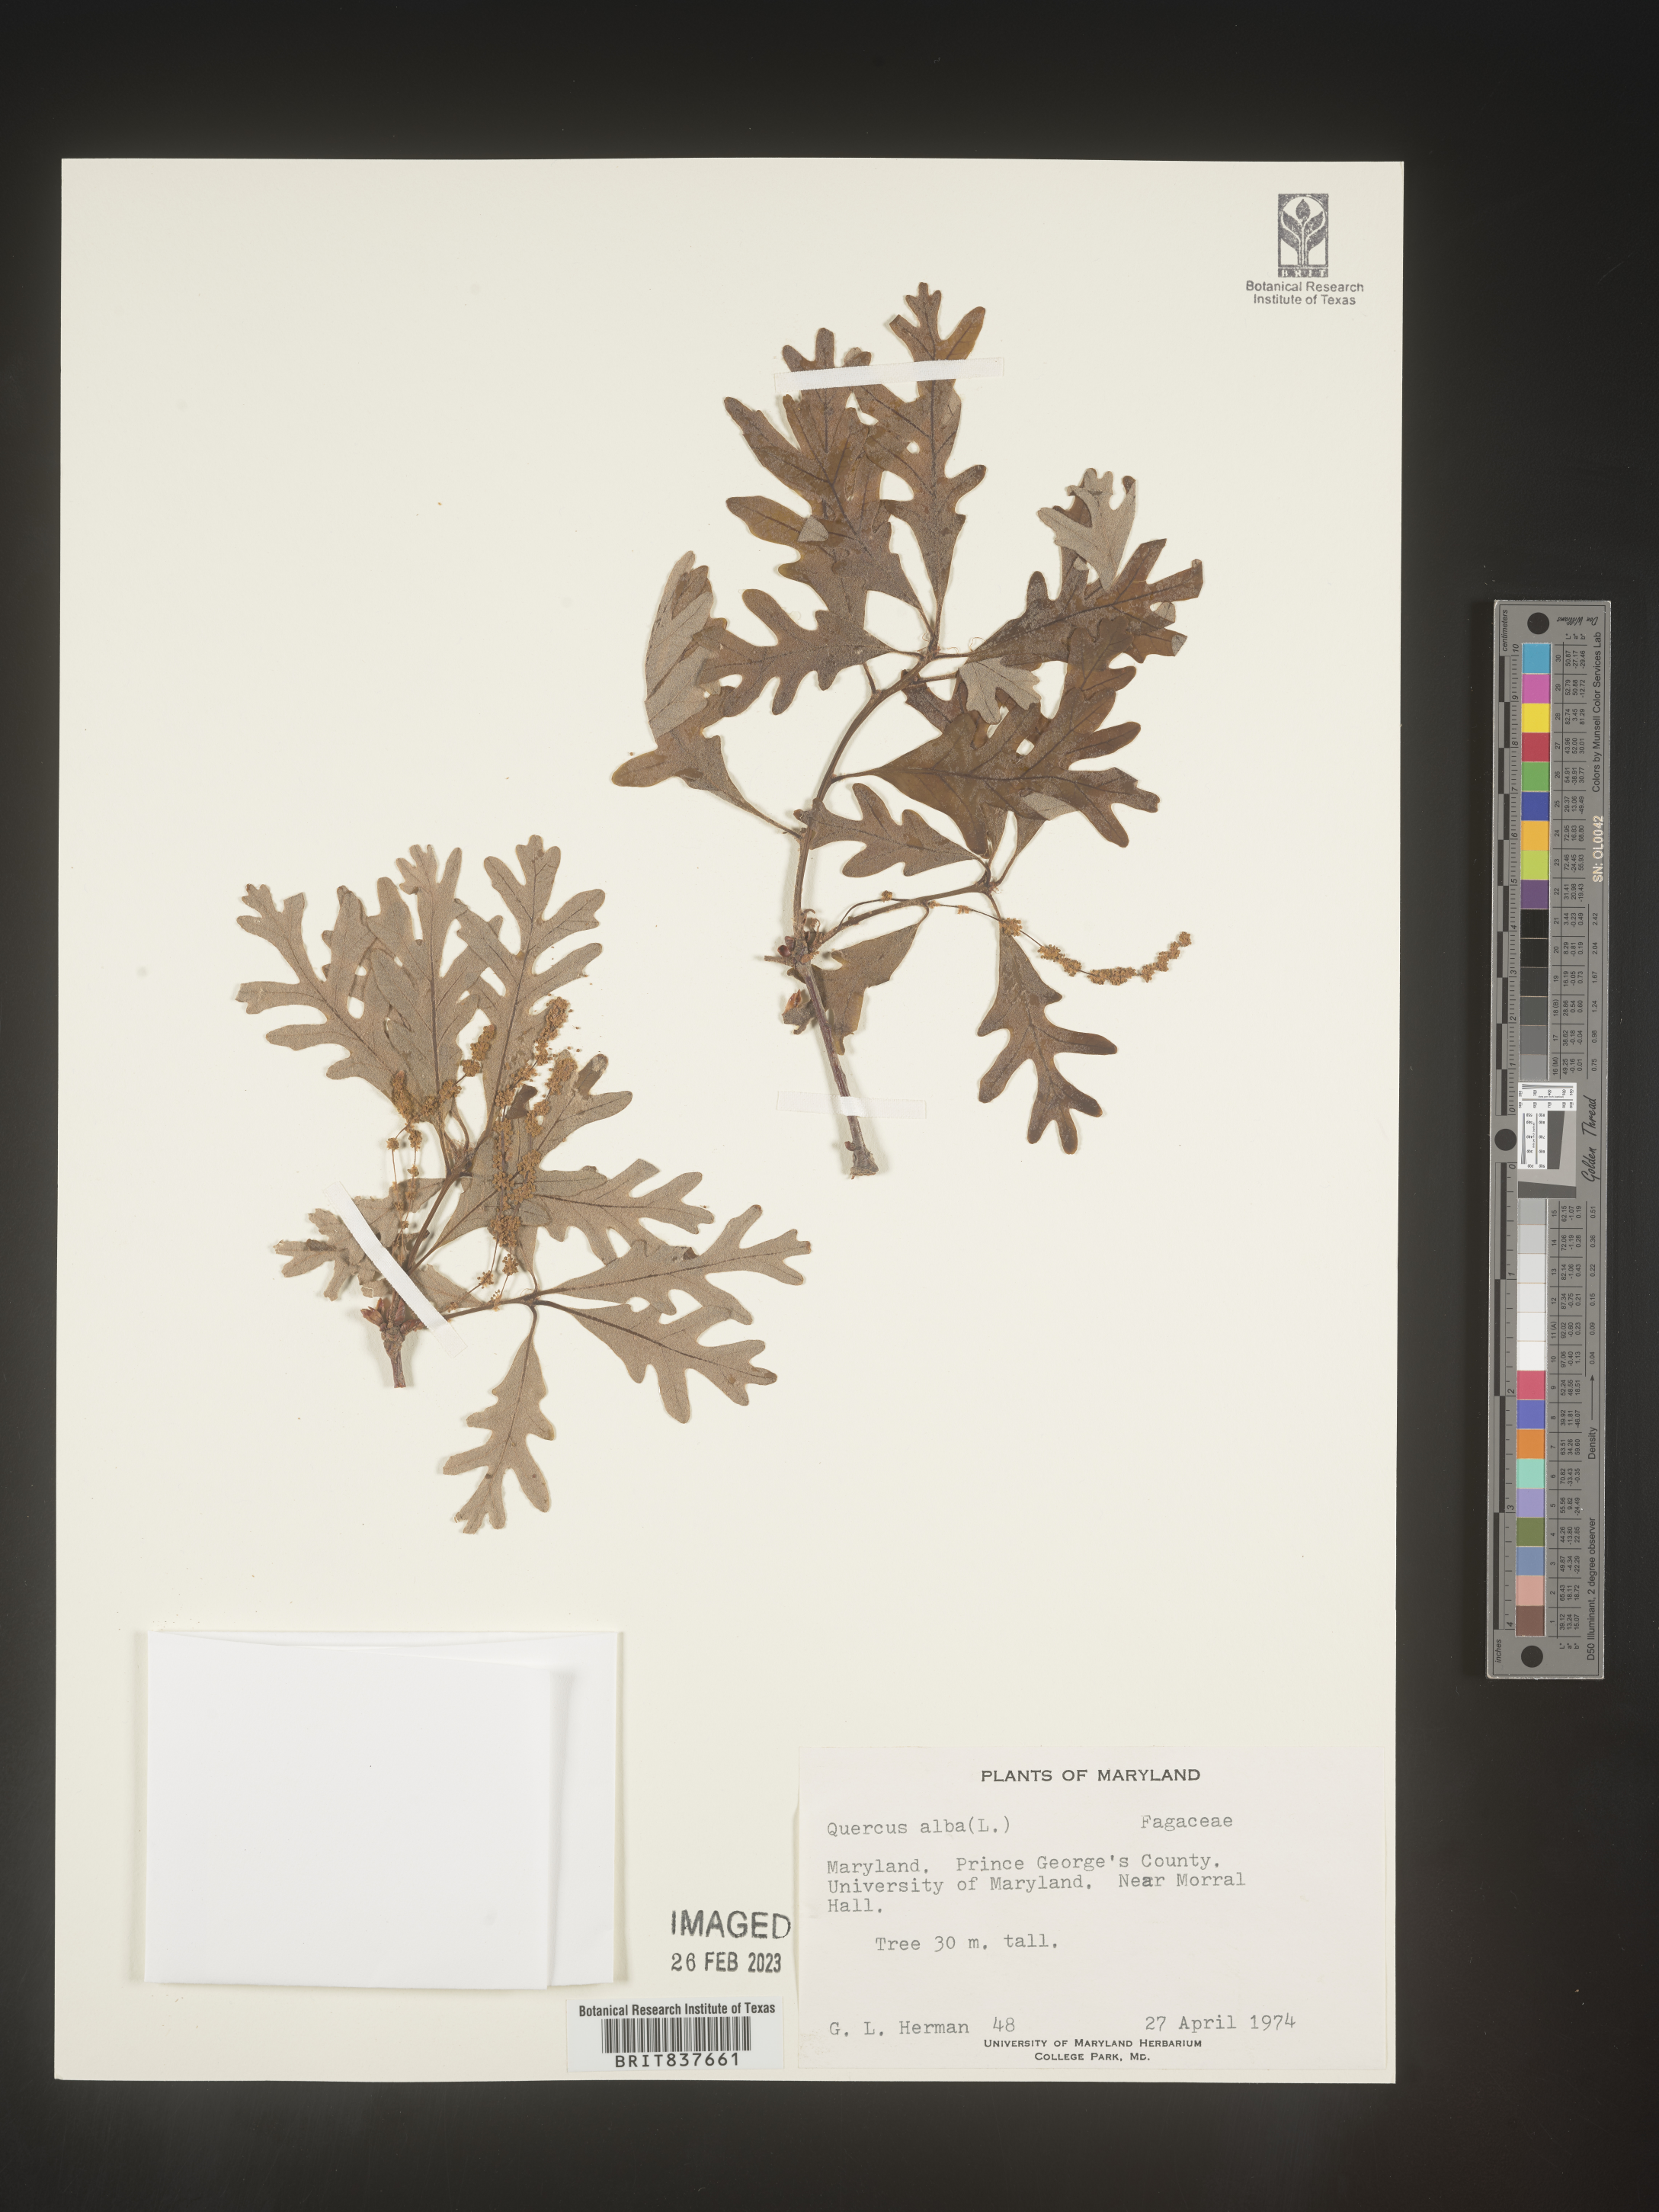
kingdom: Plantae
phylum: Tracheophyta
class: Magnoliopsida
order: Fagales
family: Fagaceae
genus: Quercus
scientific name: Quercus alba
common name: White oak
